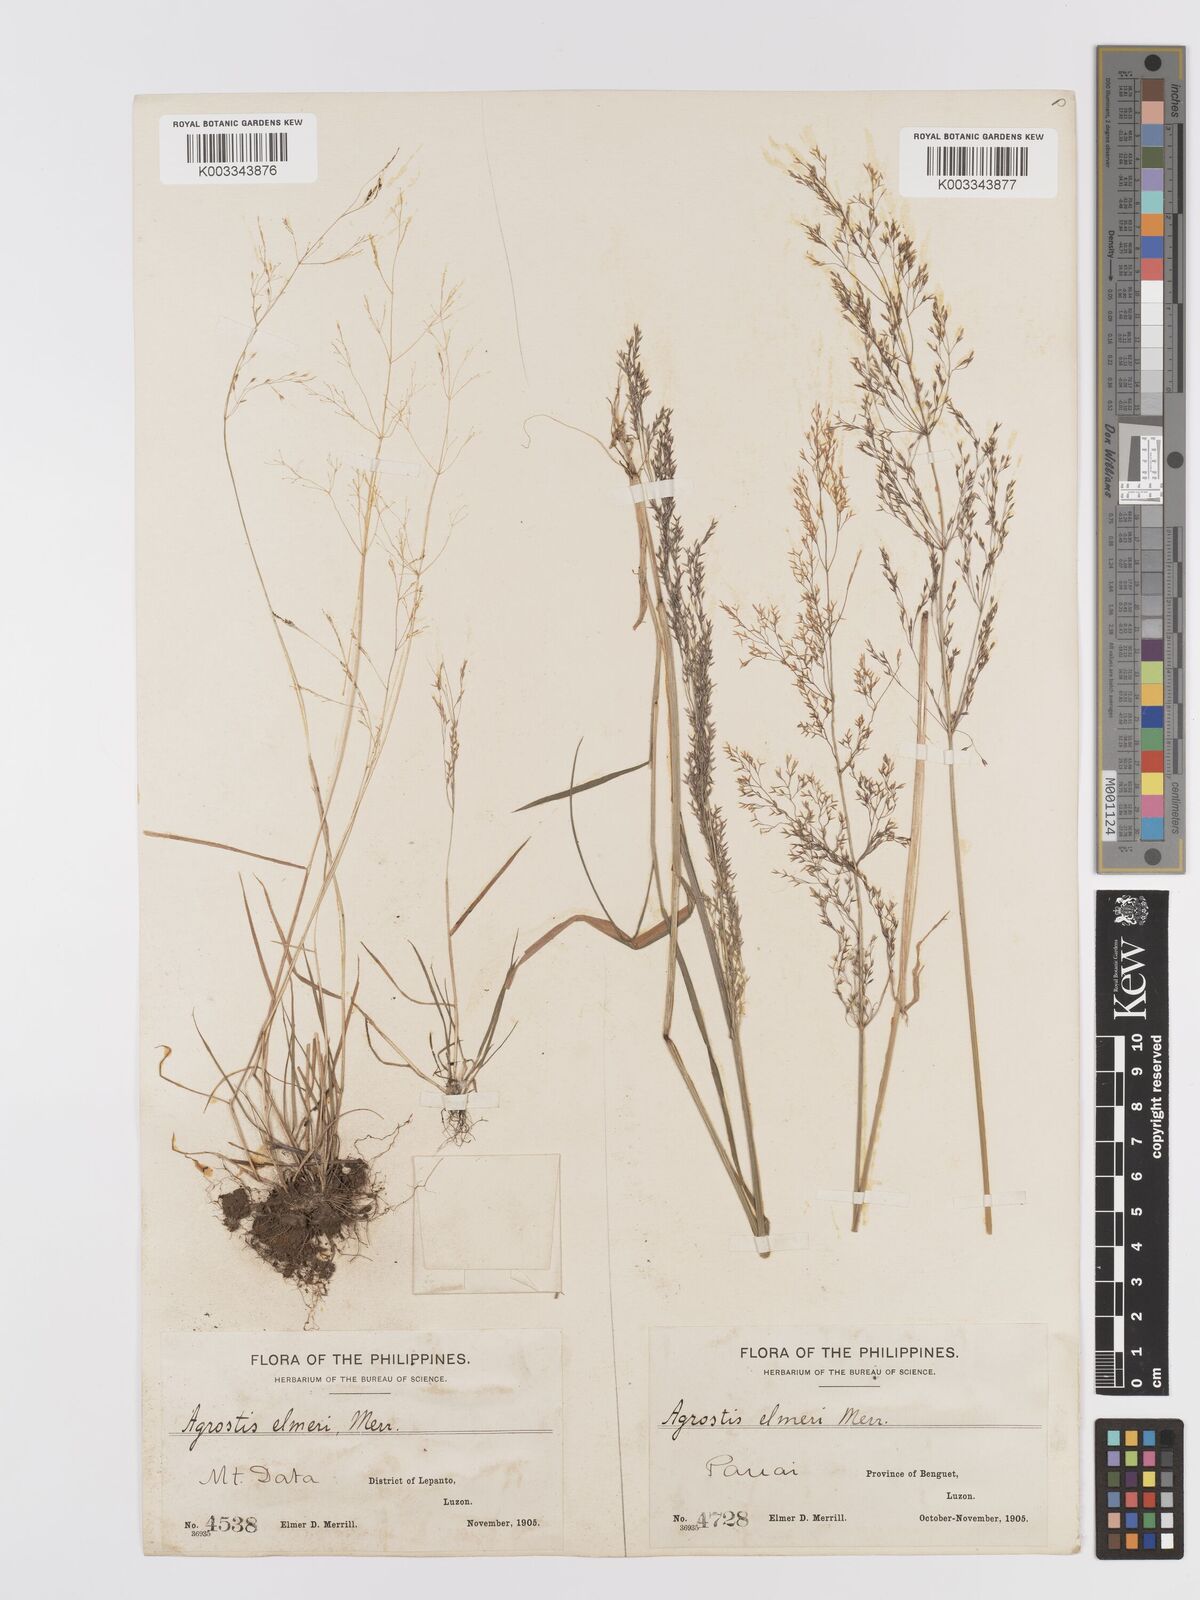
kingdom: Plantae
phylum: Tracheophyta
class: Liliopsida
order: Poales
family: Poaceae
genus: Agrostis
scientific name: Agrostis infirma
